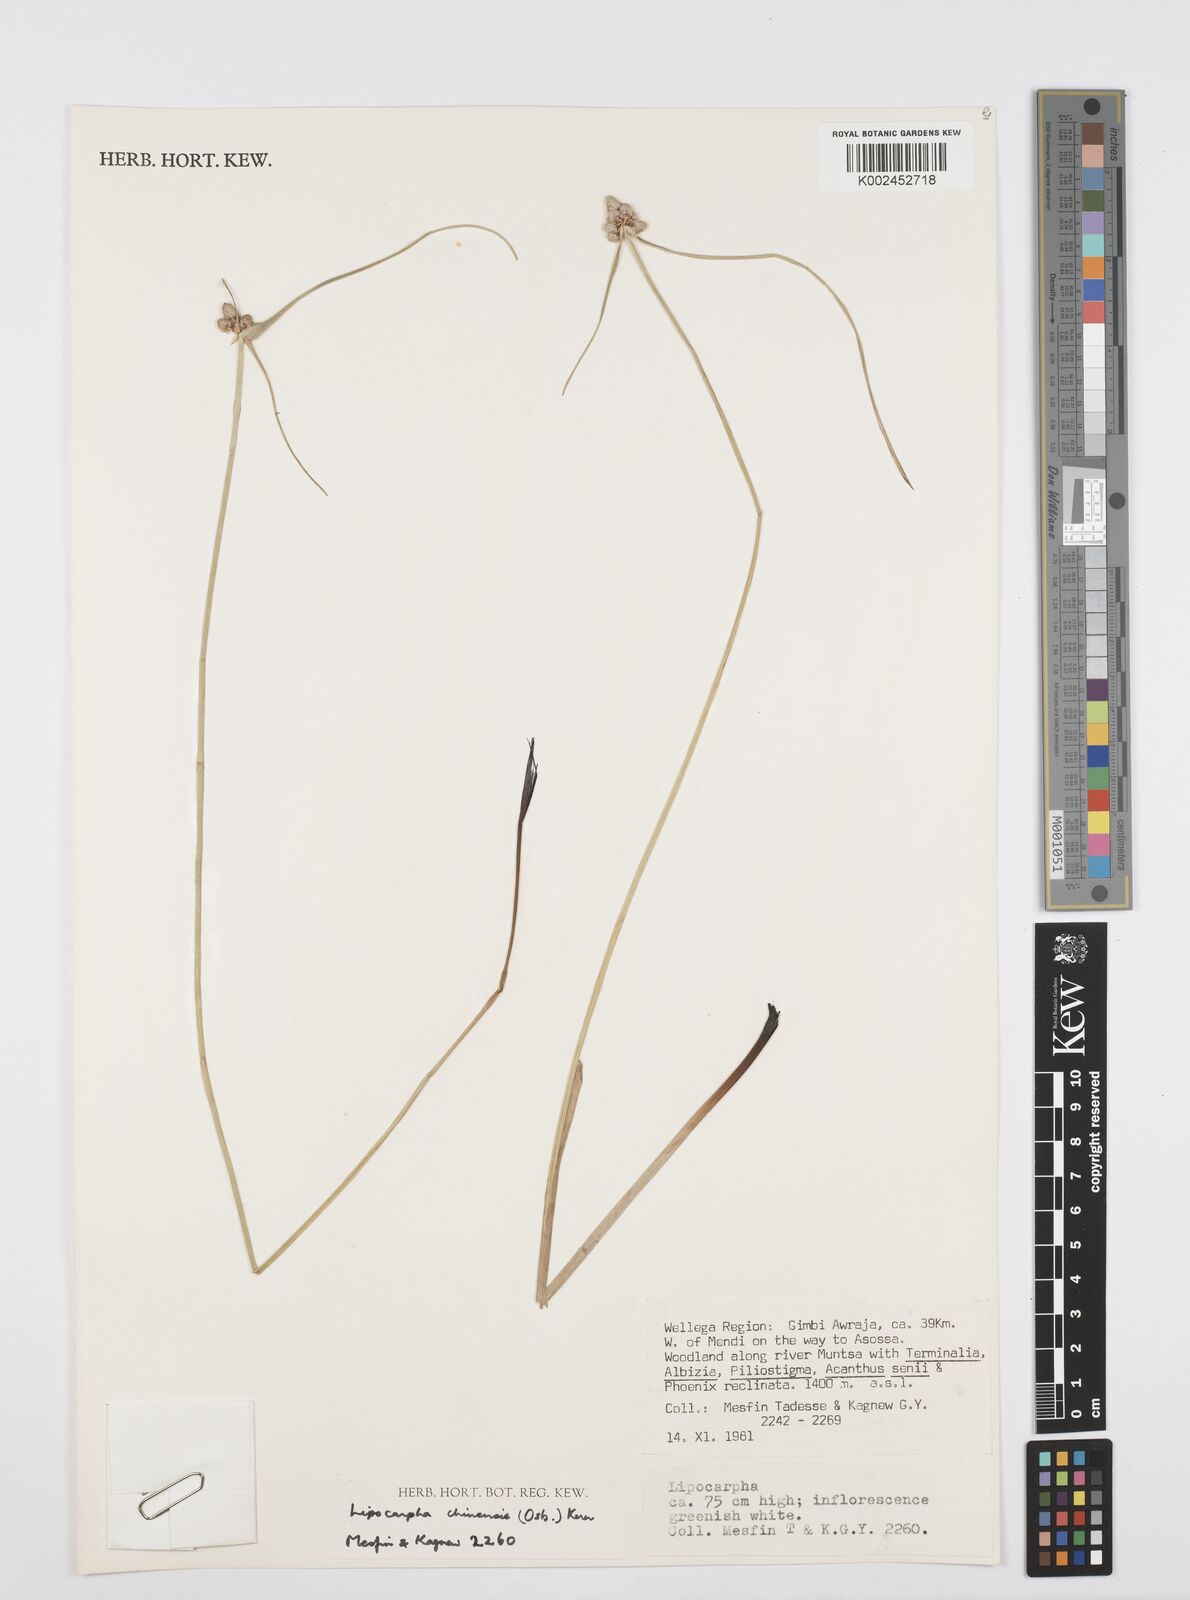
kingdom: Plantae
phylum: Tracheophyta
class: Liliopsida
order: Poales
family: Cyperaceae
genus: Cyperus
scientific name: Cyperus albescens
